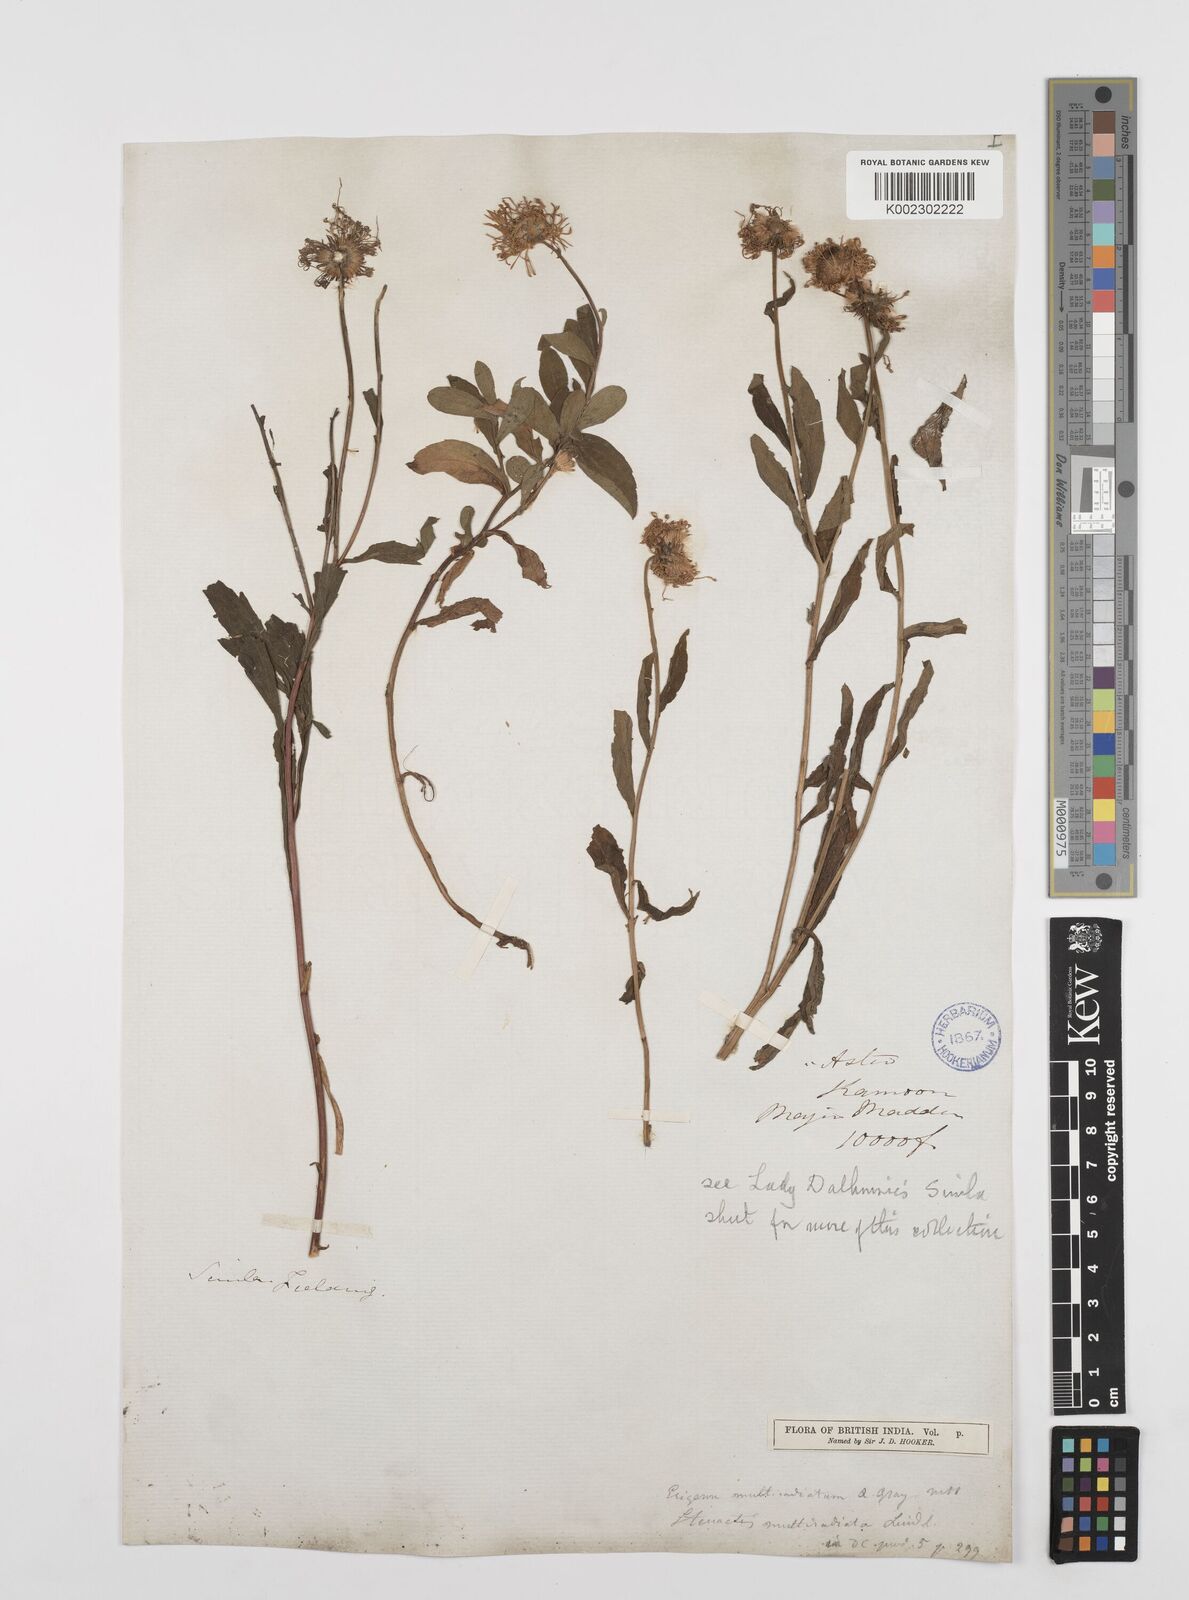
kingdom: Plantae
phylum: Tracheophyta
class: Magnoliopsida
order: Asterales
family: Asteraceae
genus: Erigeron
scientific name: Erigeron acris
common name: Blue fleabane
